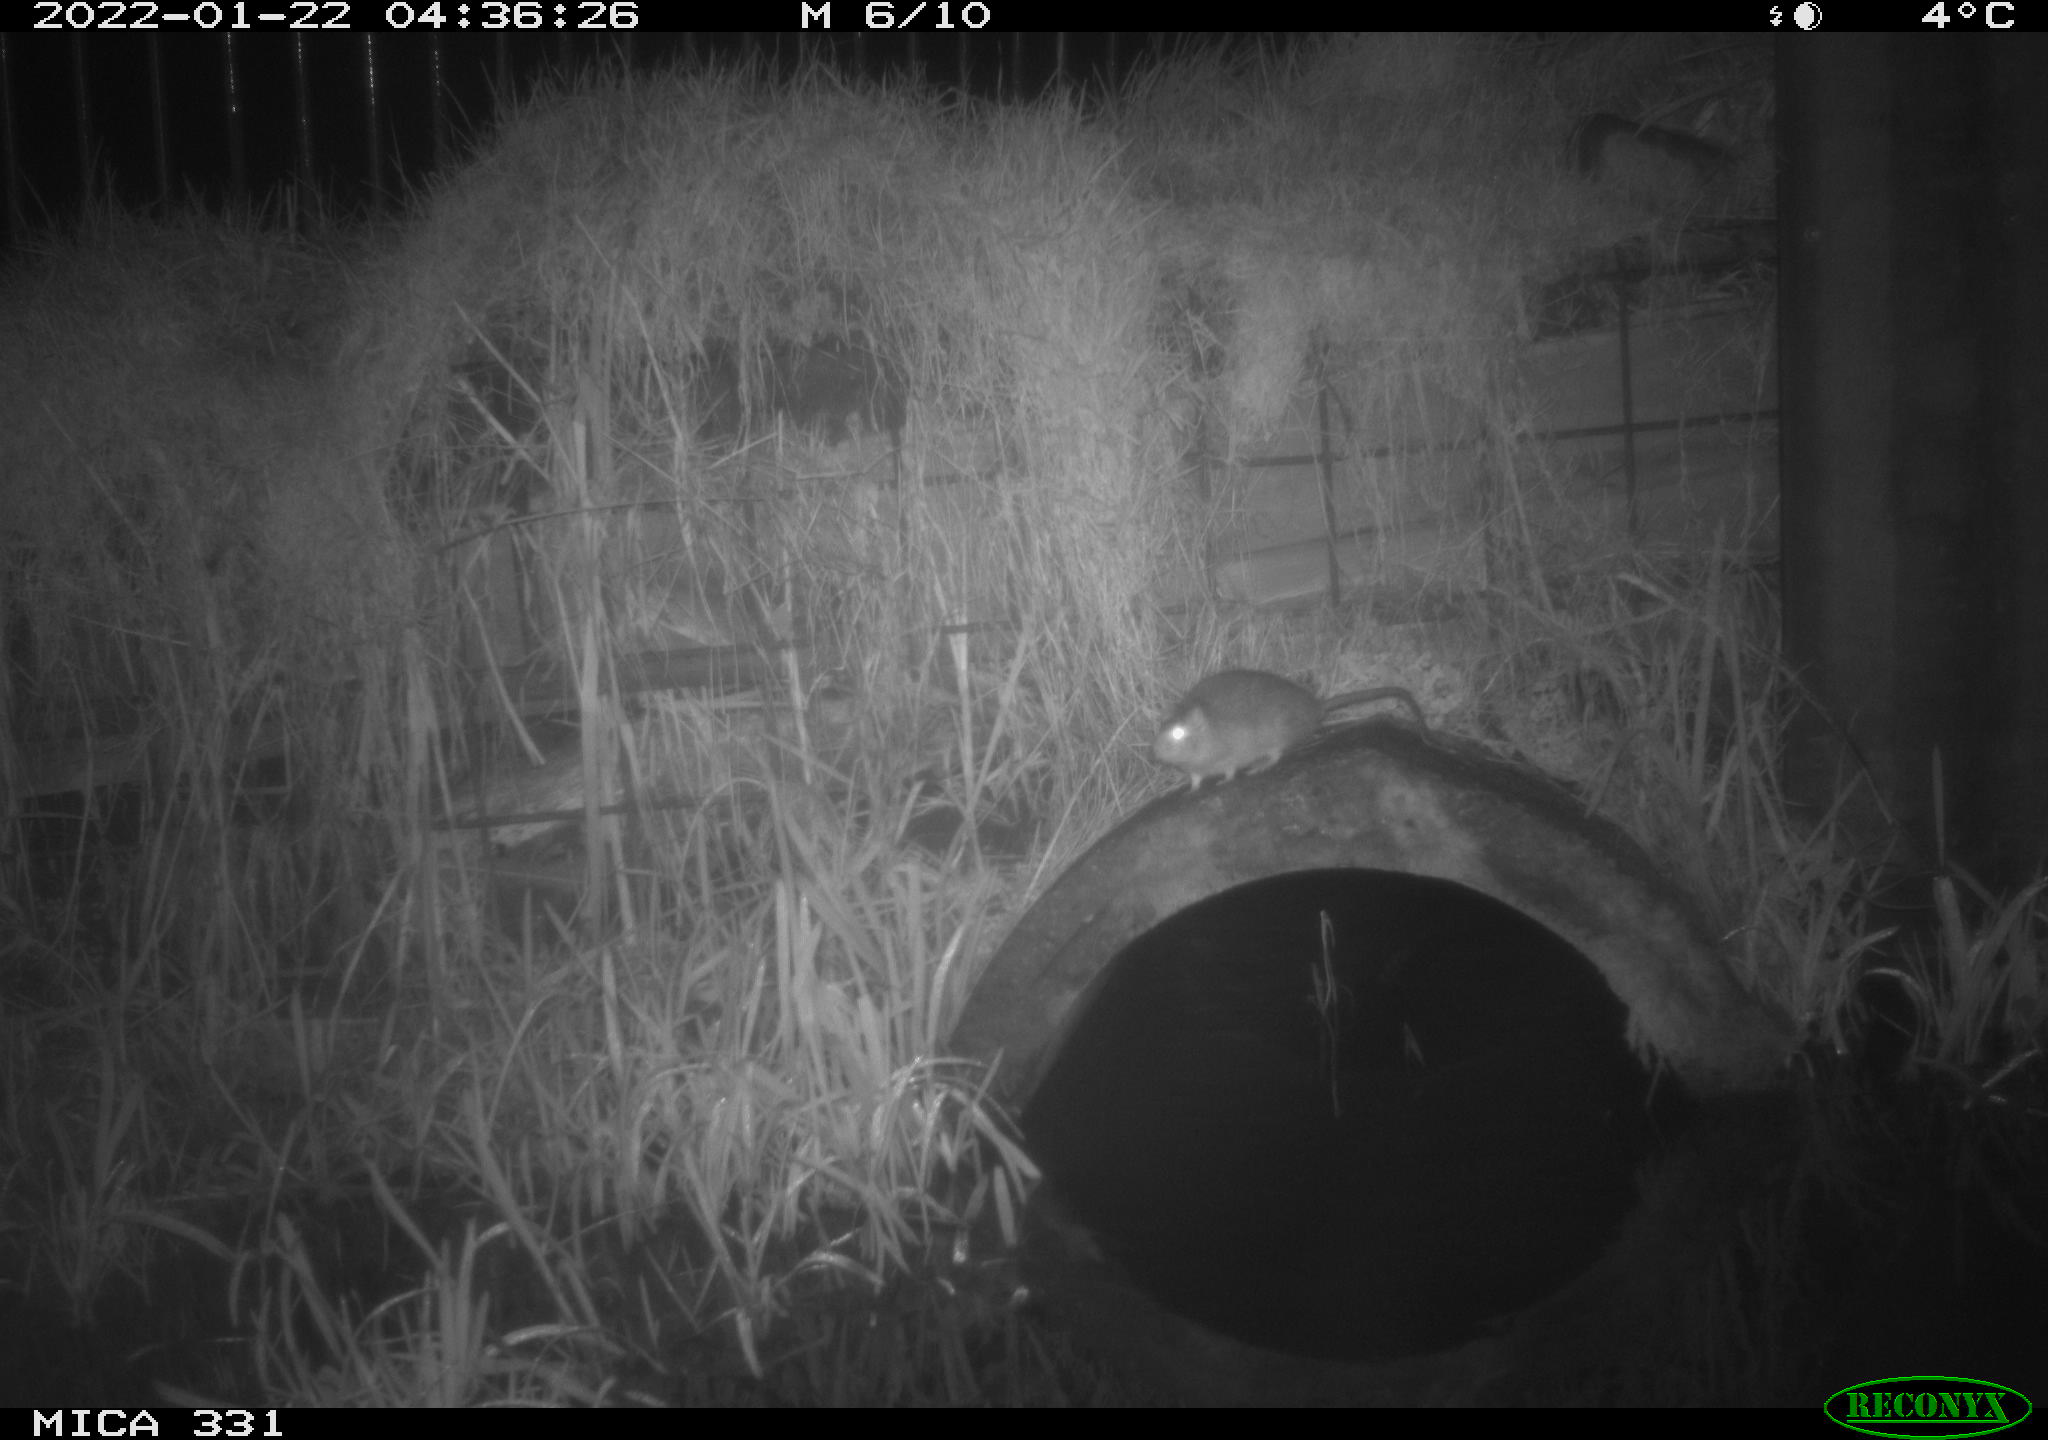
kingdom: Animalia
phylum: Chordata
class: Mammalia
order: Rodentia
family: Muridae
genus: Rattus
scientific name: Rattus norvegicus
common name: Brown rat
